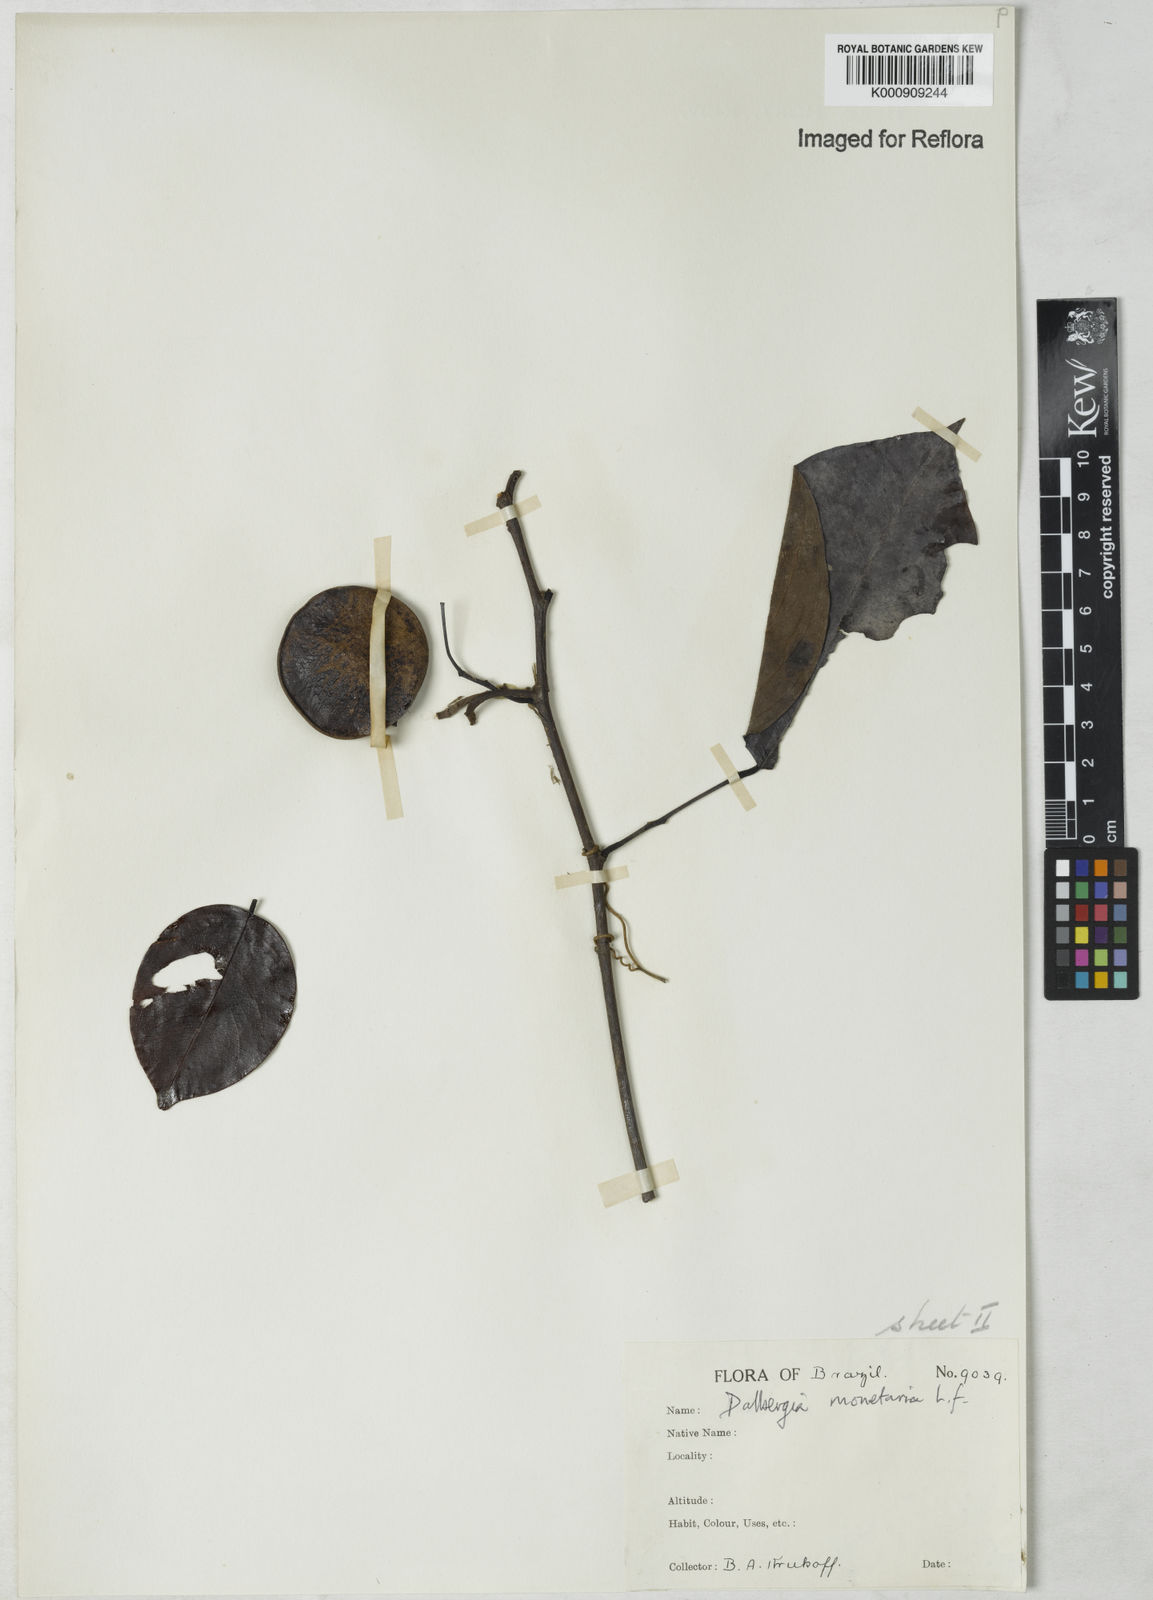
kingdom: Plantae
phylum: Tracheophyta
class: Magnoliopsida
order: Fabales
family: Fabaceae
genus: Dalbergia
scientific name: Dalbergia ovalis
